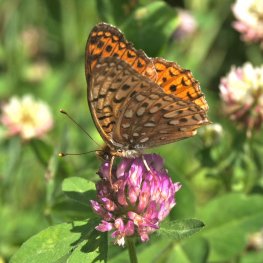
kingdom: Animalia
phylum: Arthropoda
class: Insecta
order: Lepidoptera
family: Nymphalidae
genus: Speyeria
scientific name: Speyeria atlantis
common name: Atlantis Fritillary
